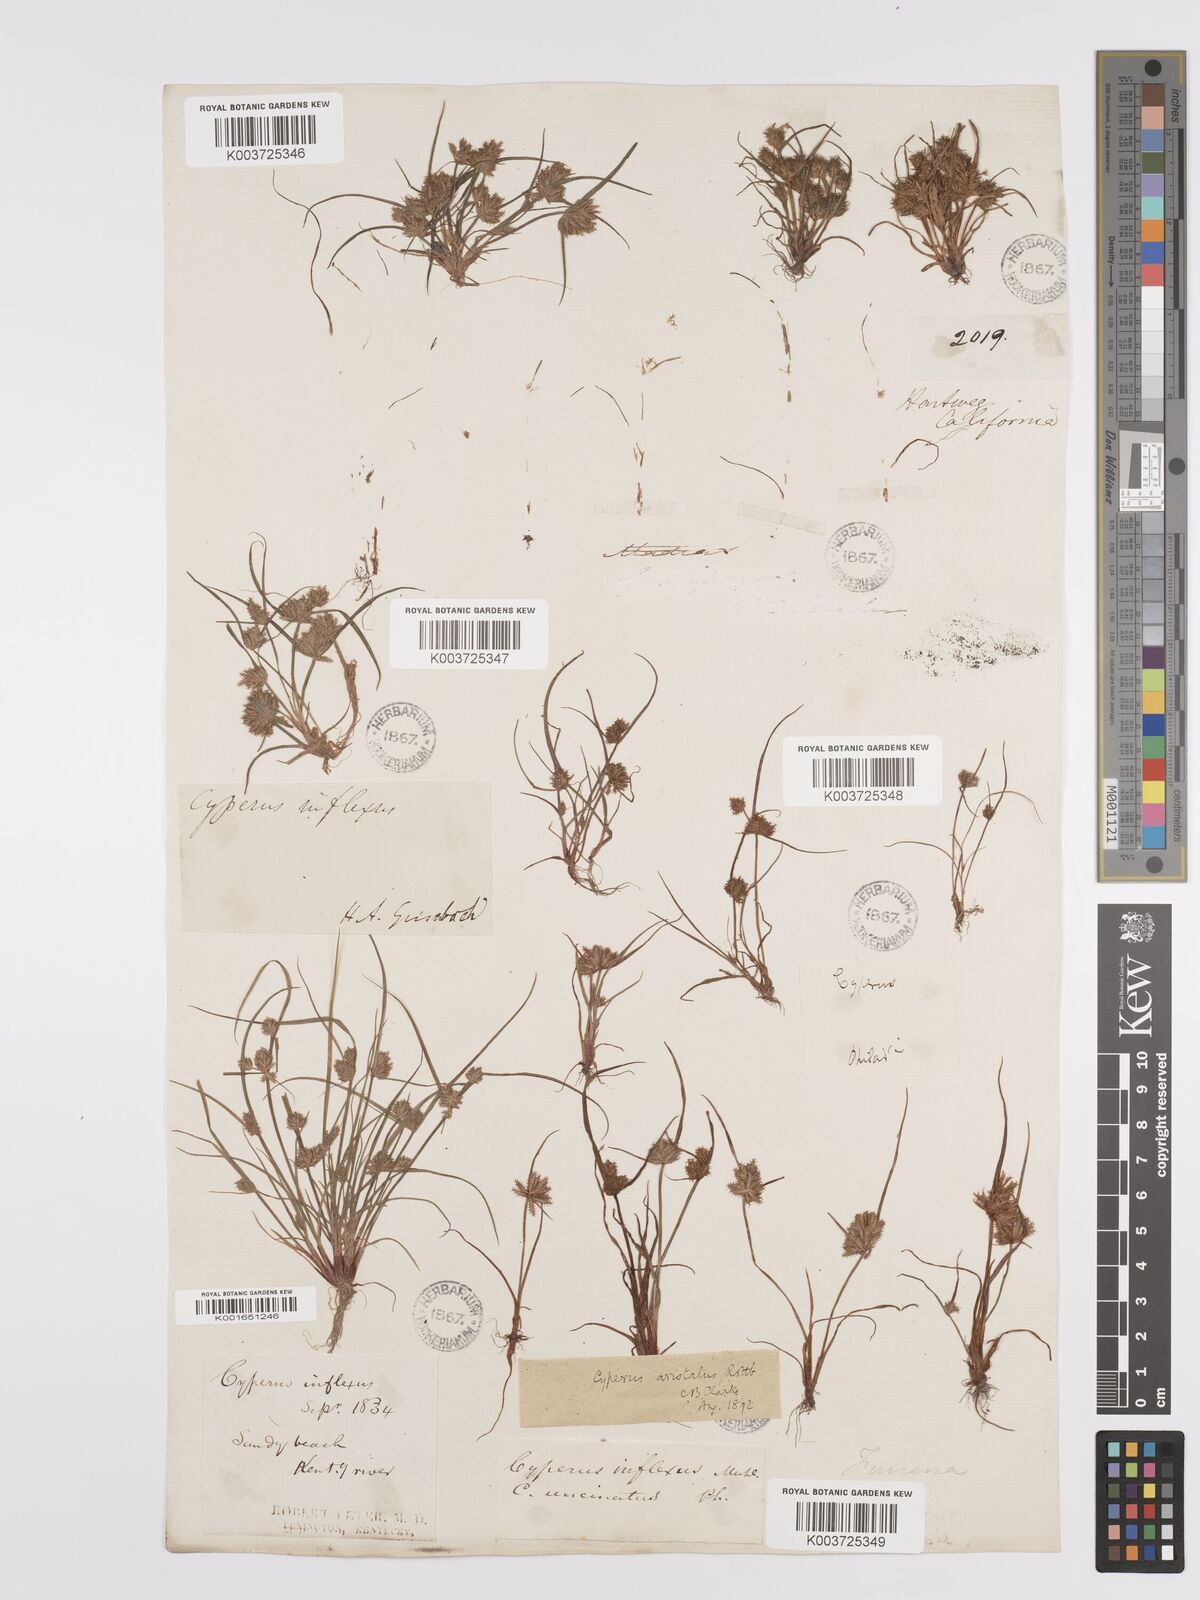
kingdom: Plantae
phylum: Tracheophyta
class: Liliopsida
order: Poales
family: Cyperaceae
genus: Cyperus
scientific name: Cyperus squarrosus
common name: Awned cyperus
